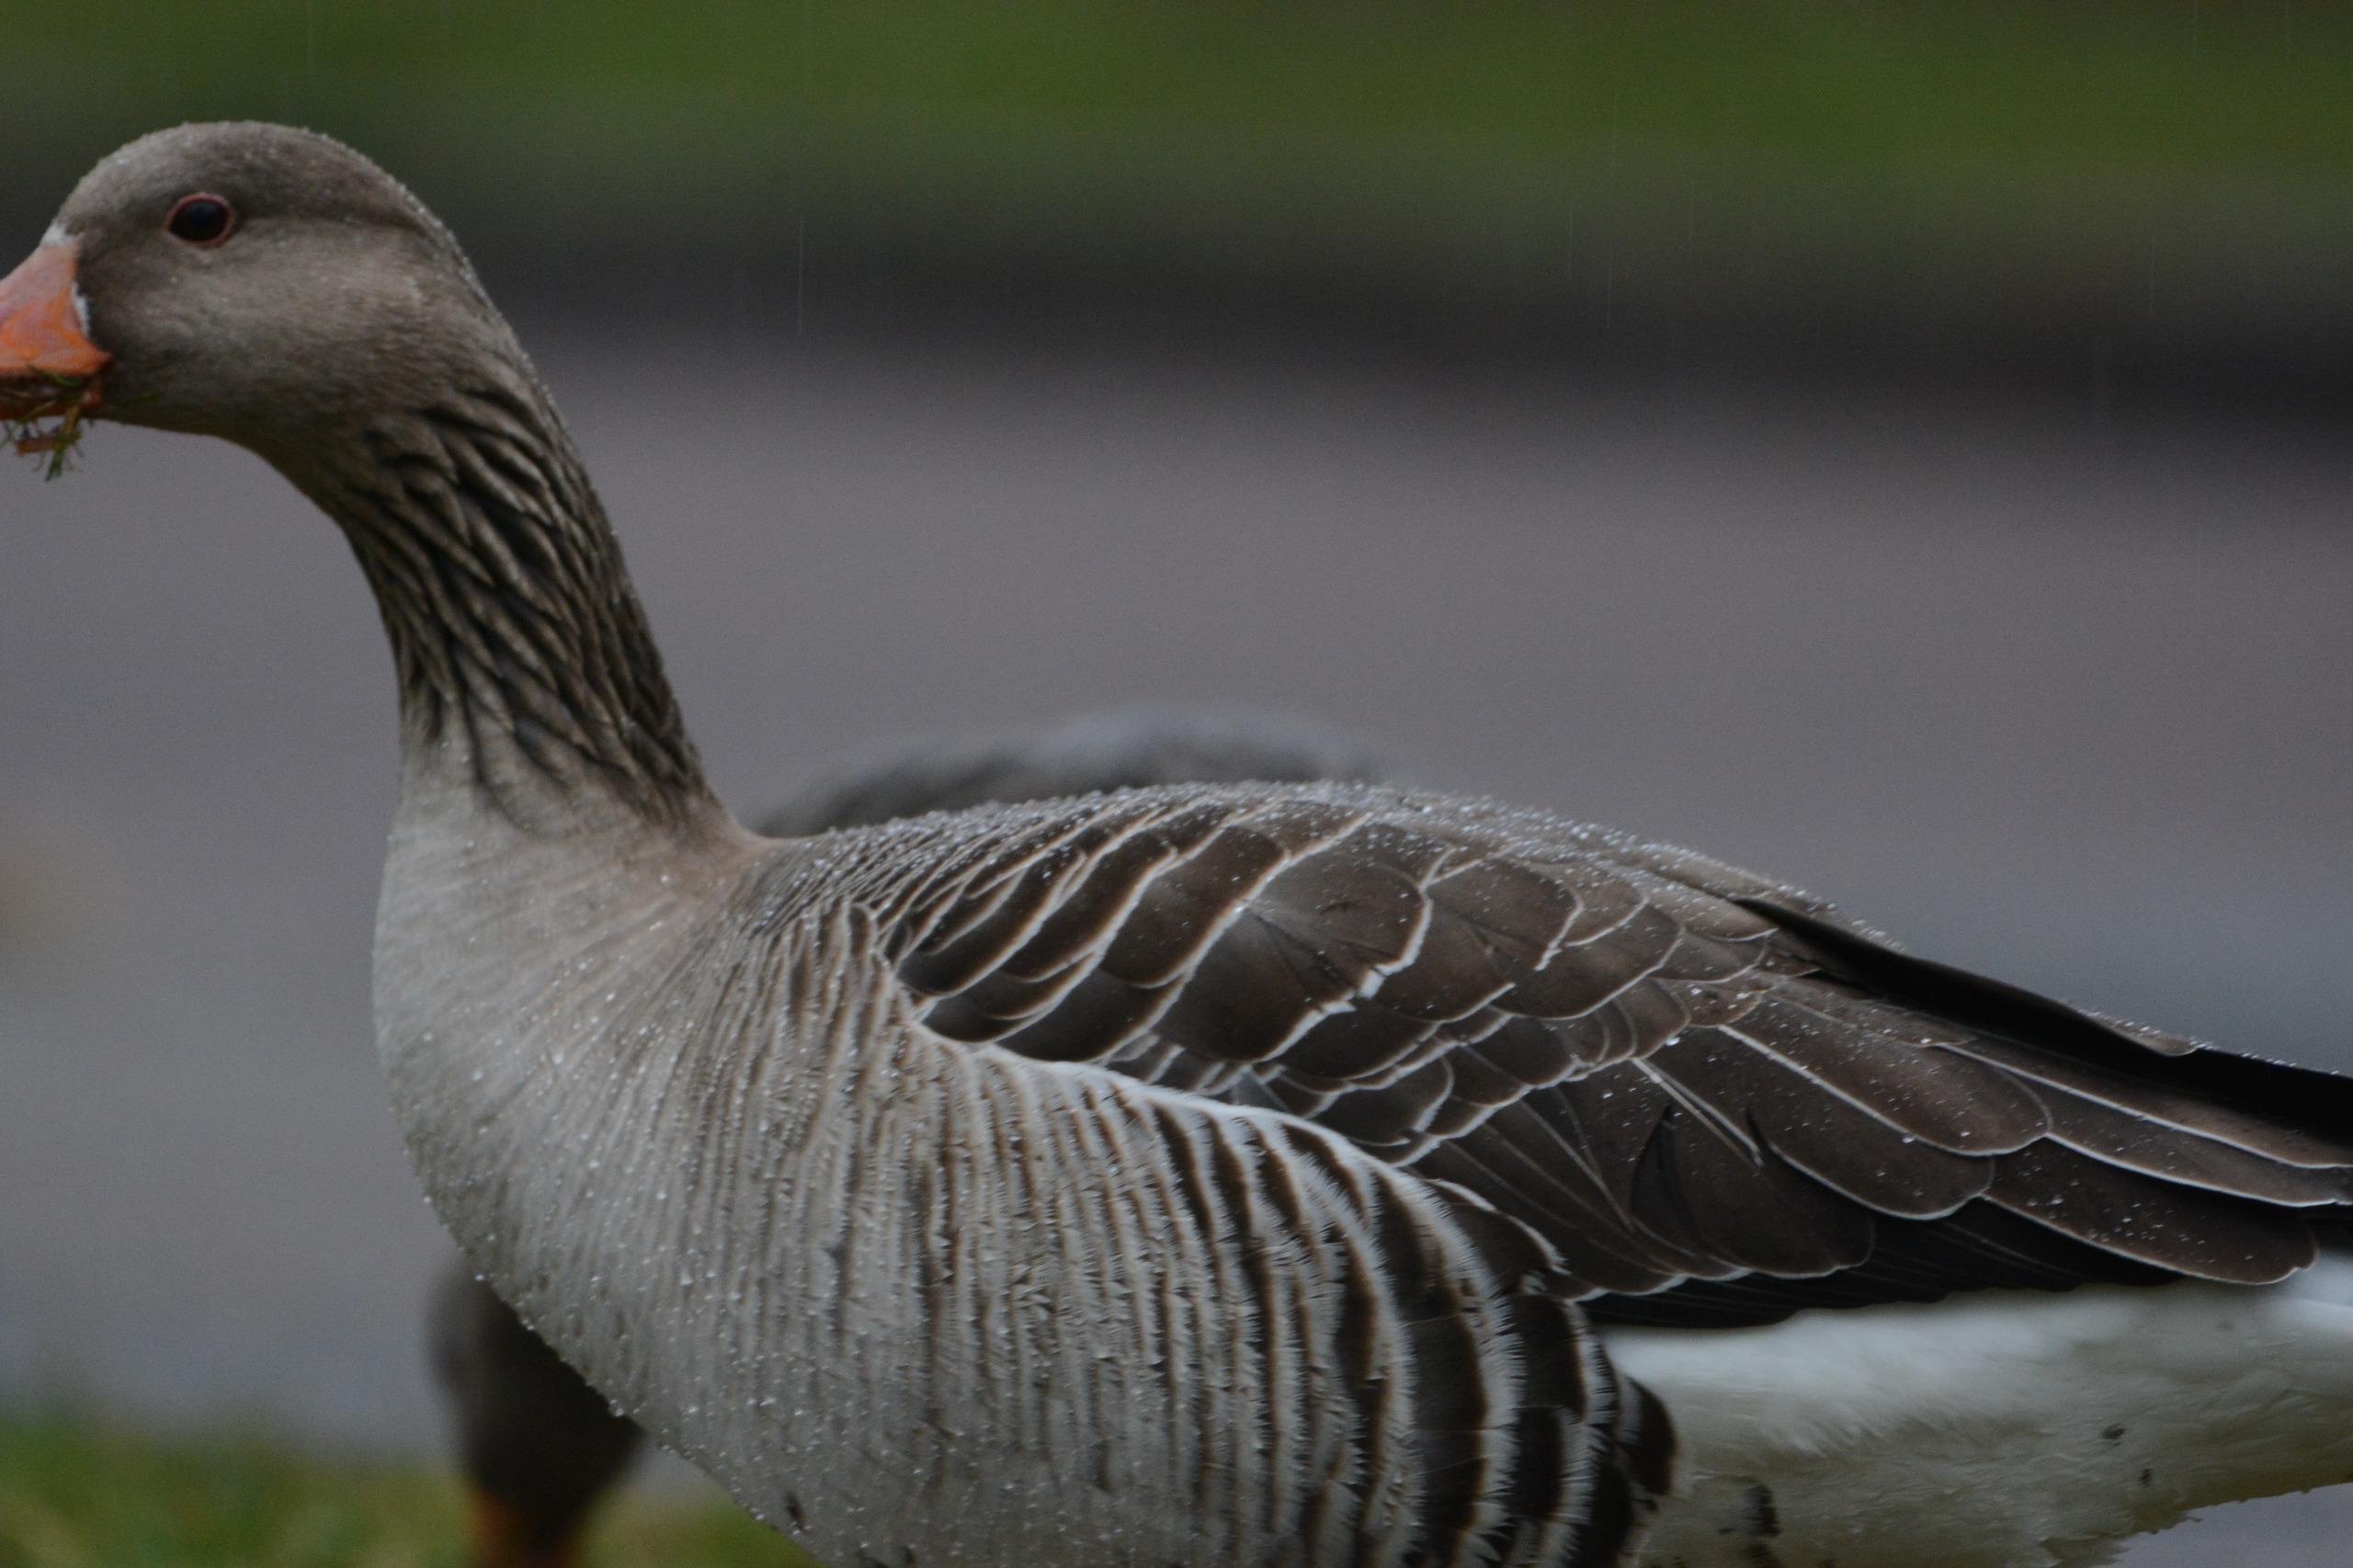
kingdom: Animalia
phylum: Chordata
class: Aves
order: Anseriformes
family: Anatidae
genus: Anser
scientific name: Anser anser
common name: Grågås
